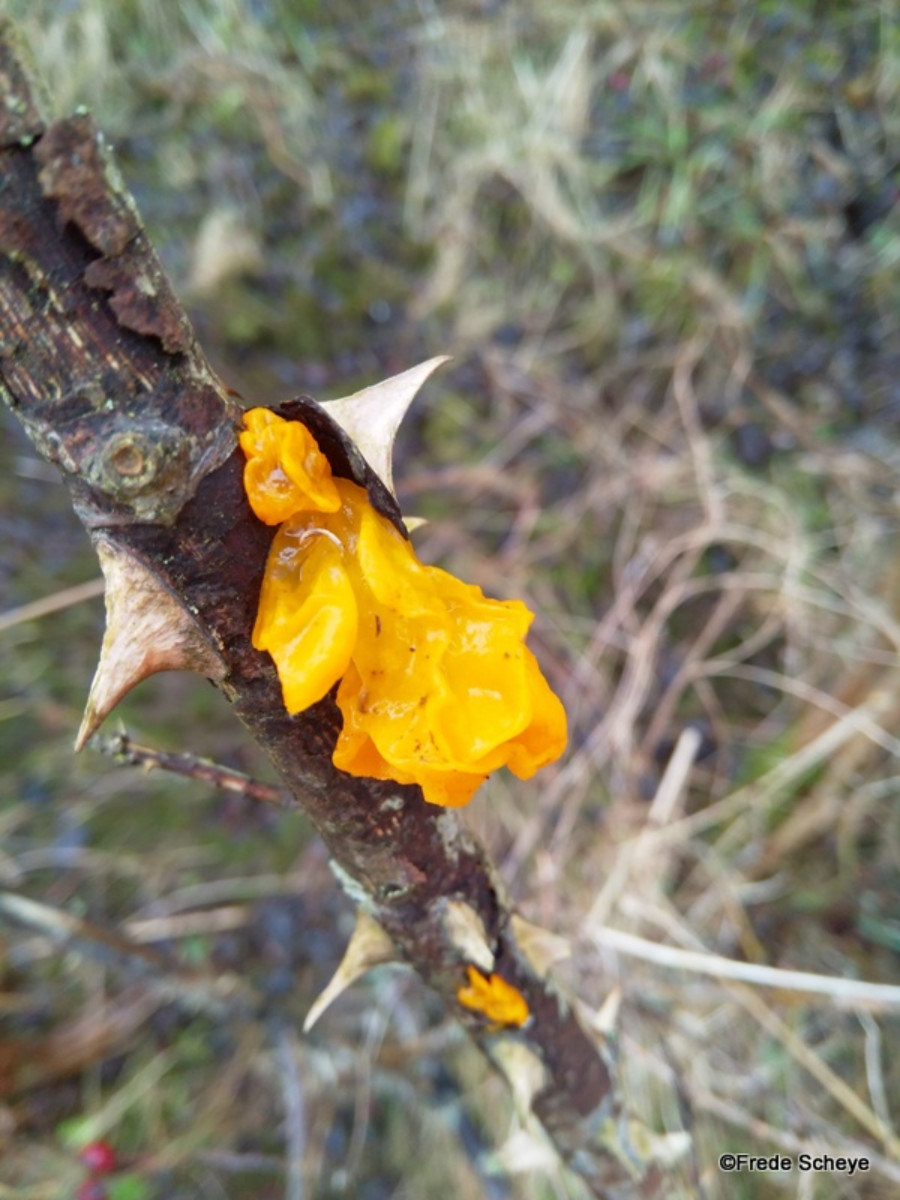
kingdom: Fungi
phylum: Basidiomycota
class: Tremellomycetes
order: Tremellales
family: Tremellaceae
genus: Tremella
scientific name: Tremella mesenterica
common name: gul bævresvamp
